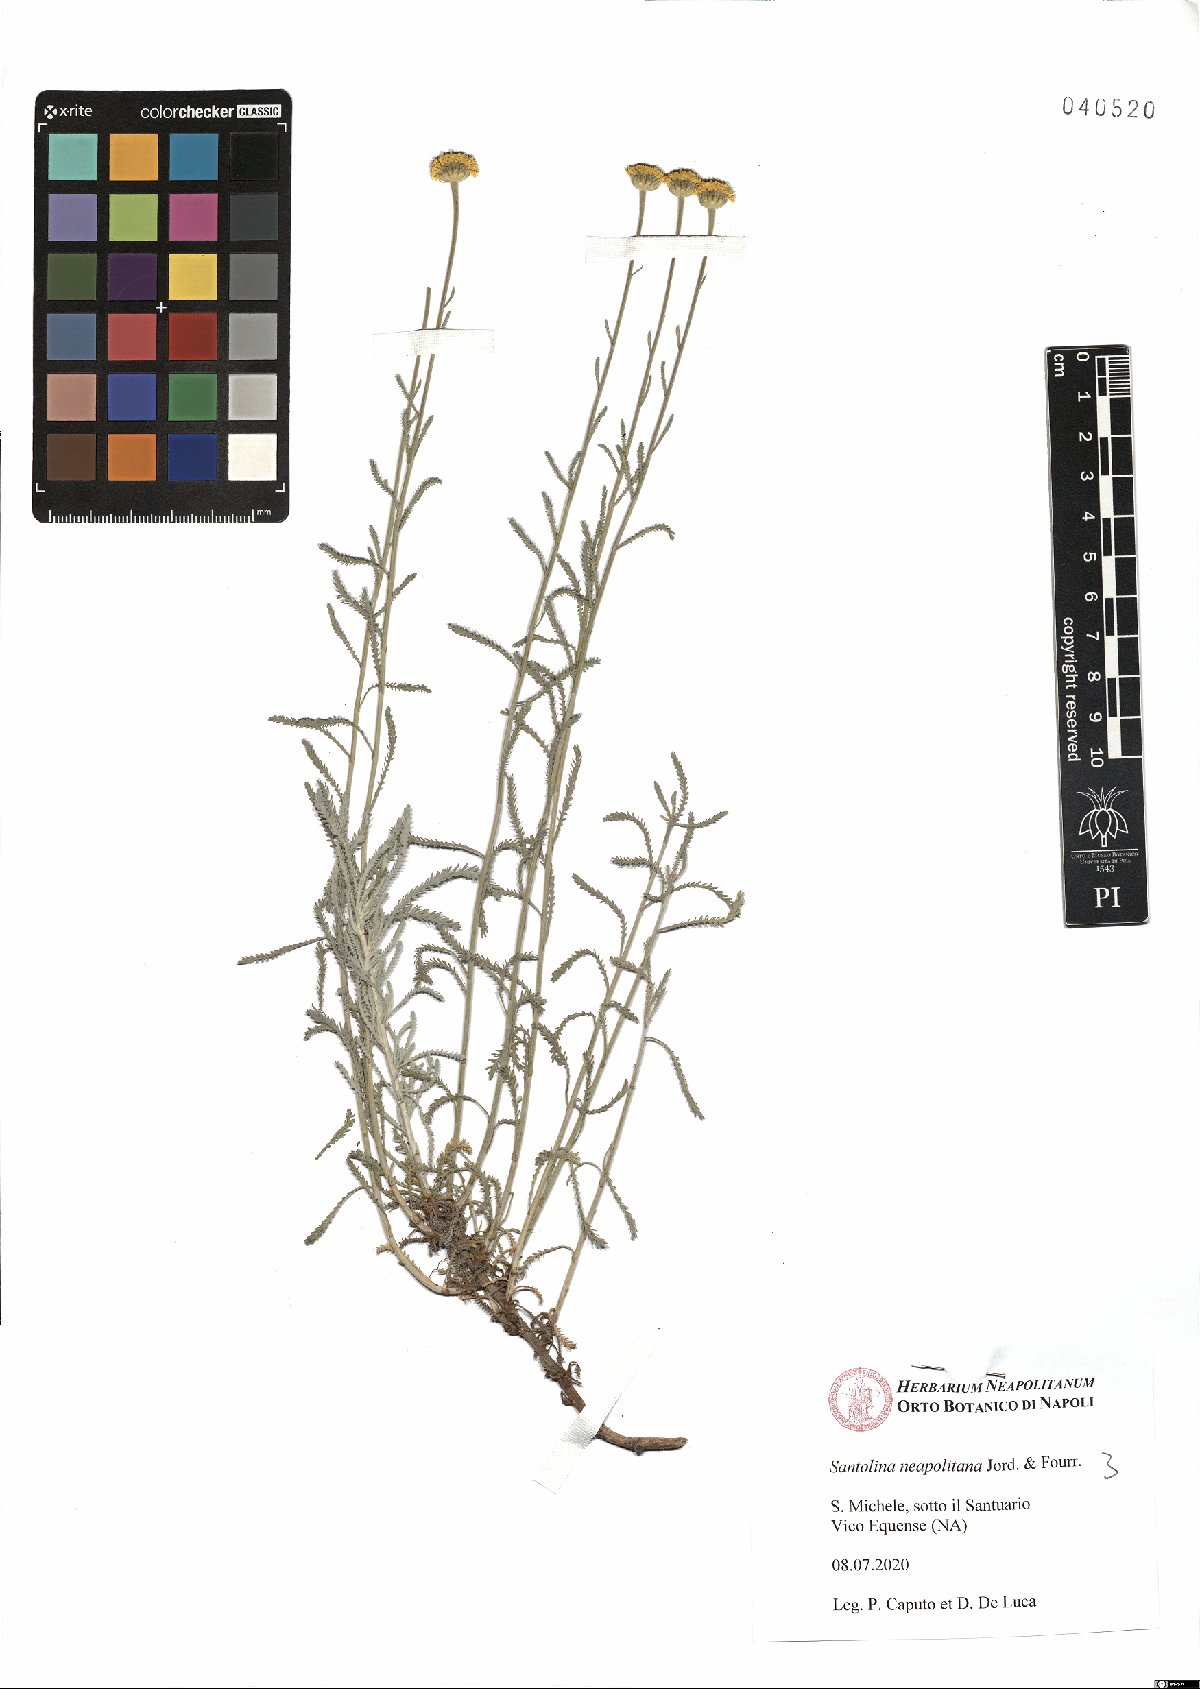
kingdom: Plantae
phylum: Tracheophyta
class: Magnoliopsida
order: Asterales
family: Asteraceae
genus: Santolina
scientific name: Santolina neapolitana
